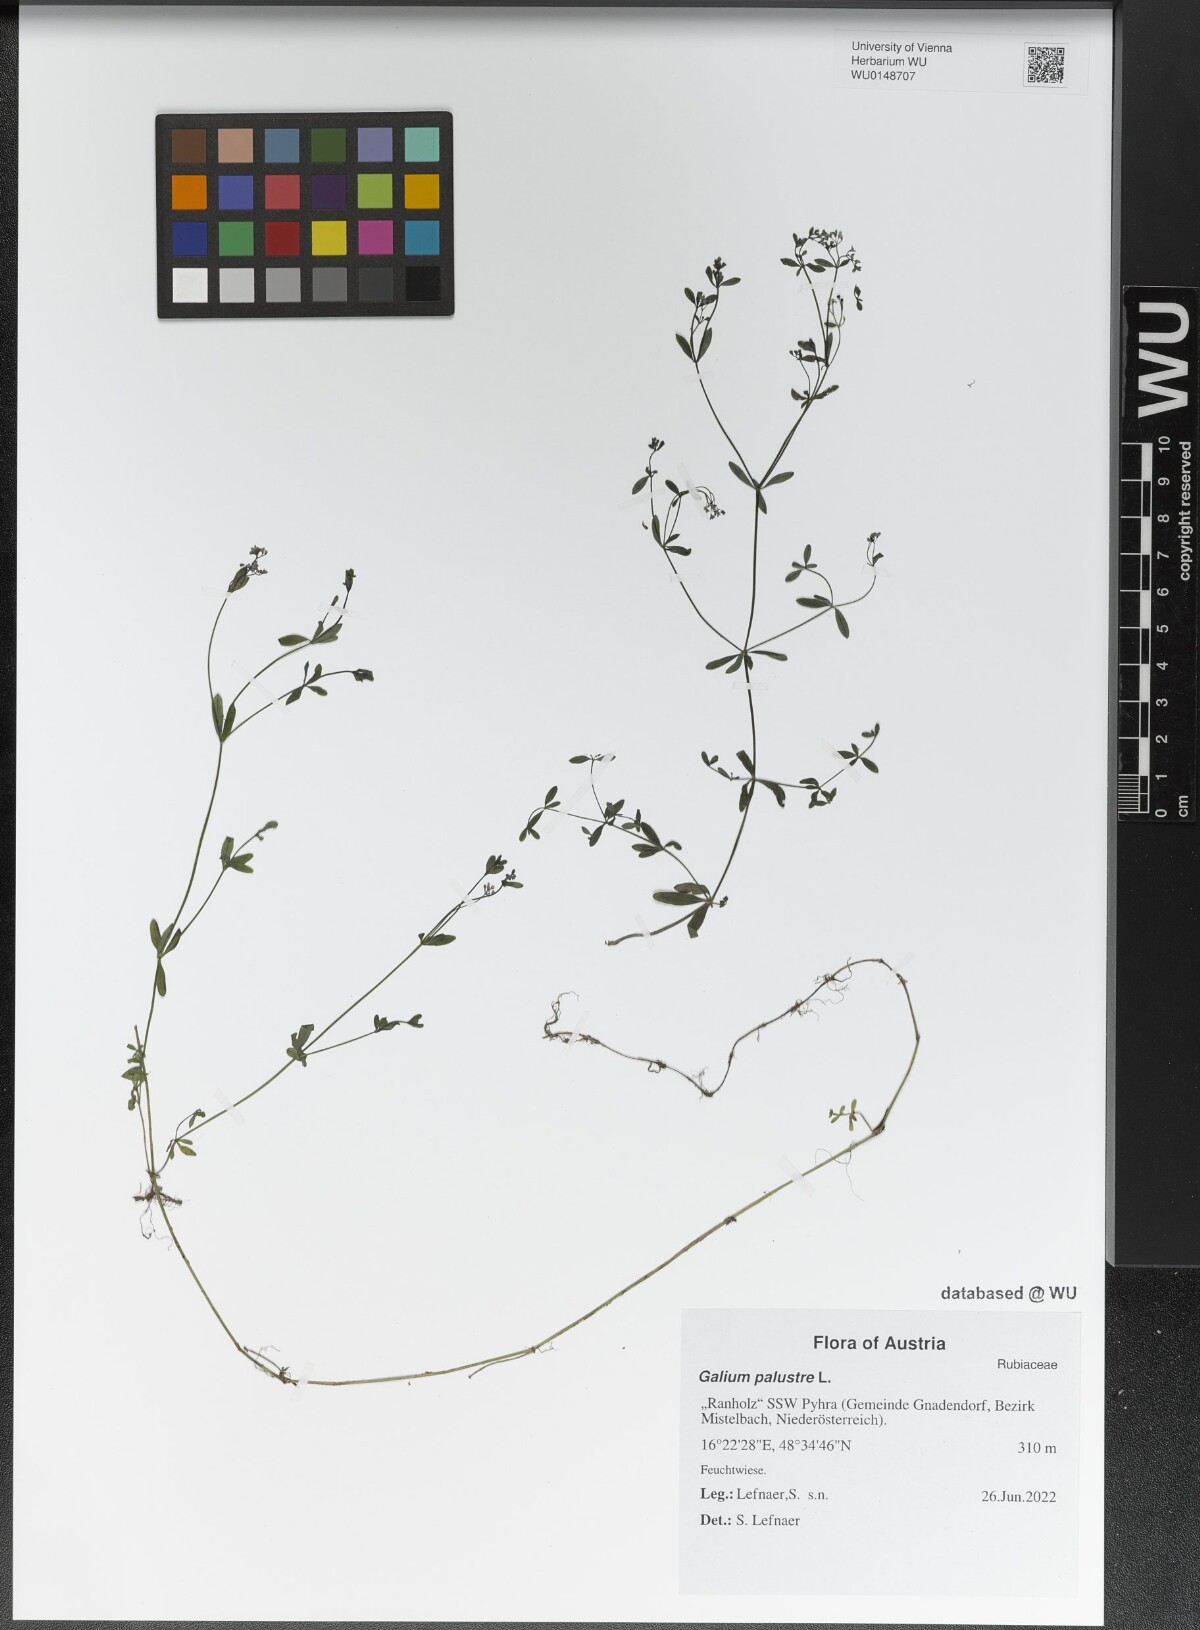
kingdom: Plantae
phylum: Tracheophyta
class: Magnoliopsida
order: Gentianales
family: Rubiaceae
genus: Galium
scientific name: Galium palustre
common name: Common marsh-bedstraw
